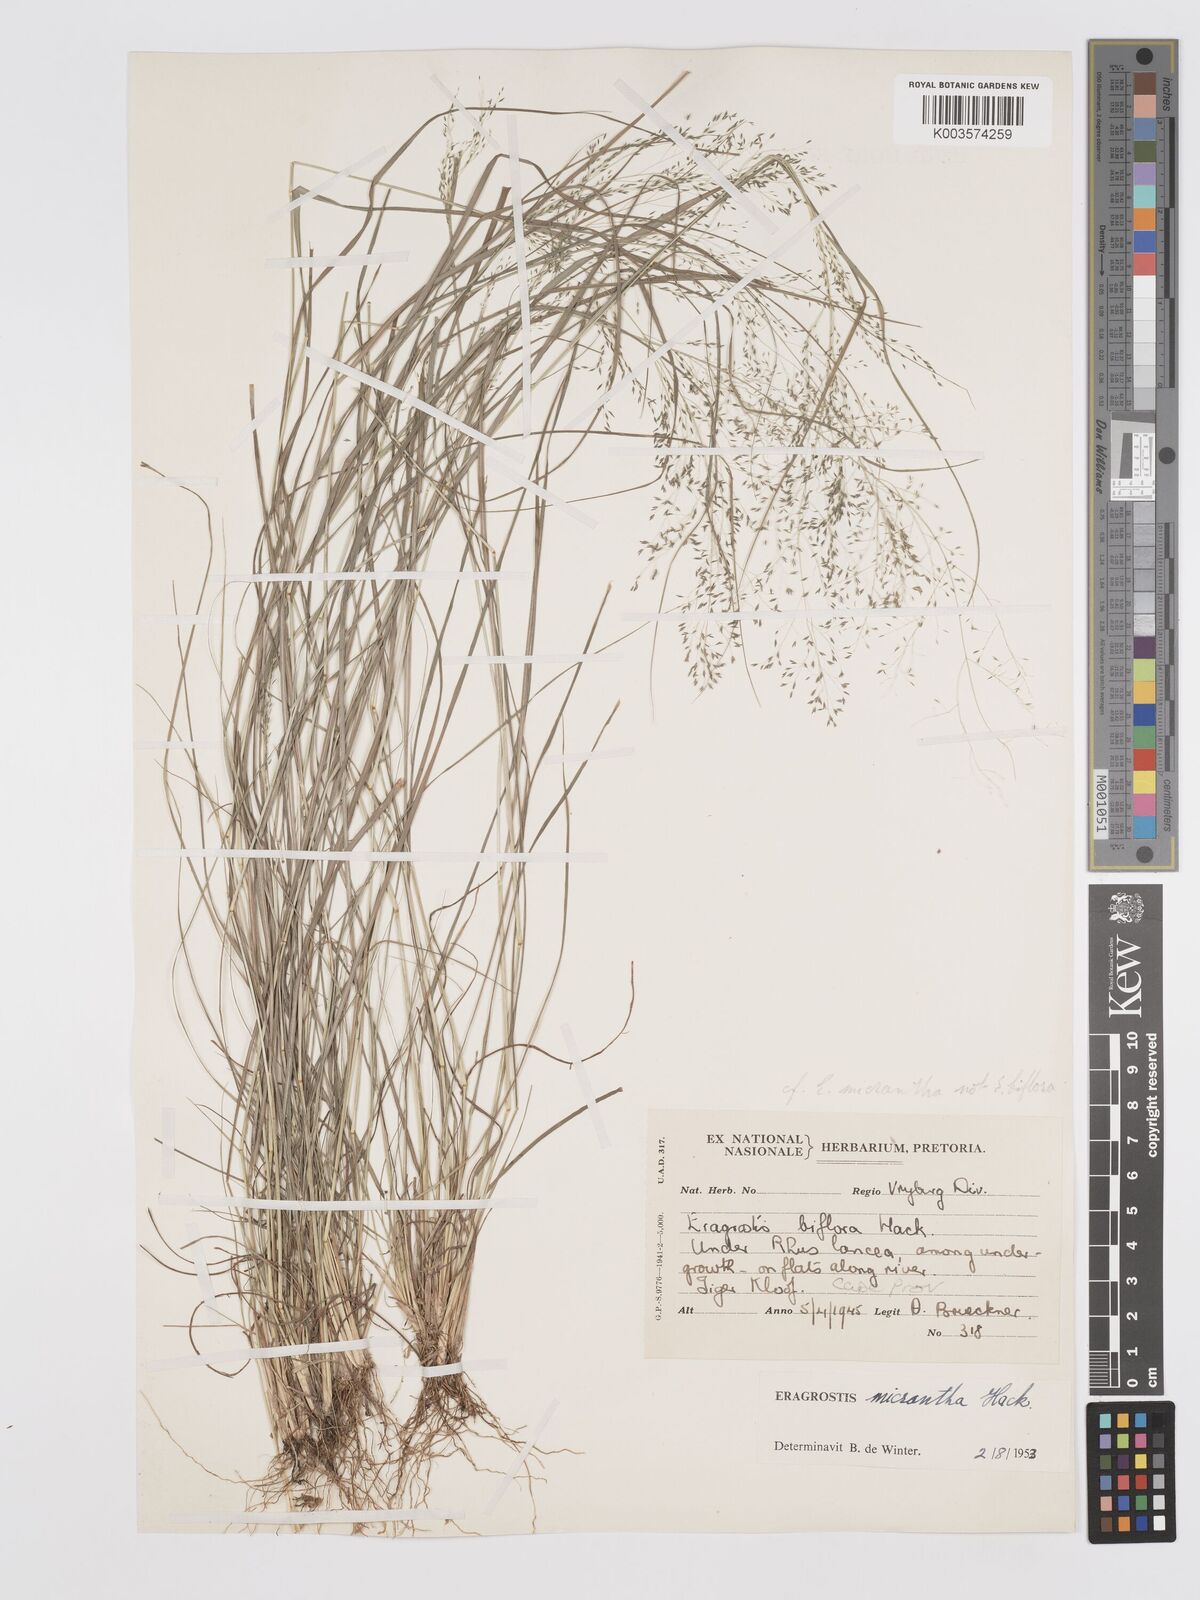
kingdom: Plantae
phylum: Tracheophyta
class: Liliopsida
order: Poales
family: Poaceae
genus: Eragrostis
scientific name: Eragrostis micrantha
